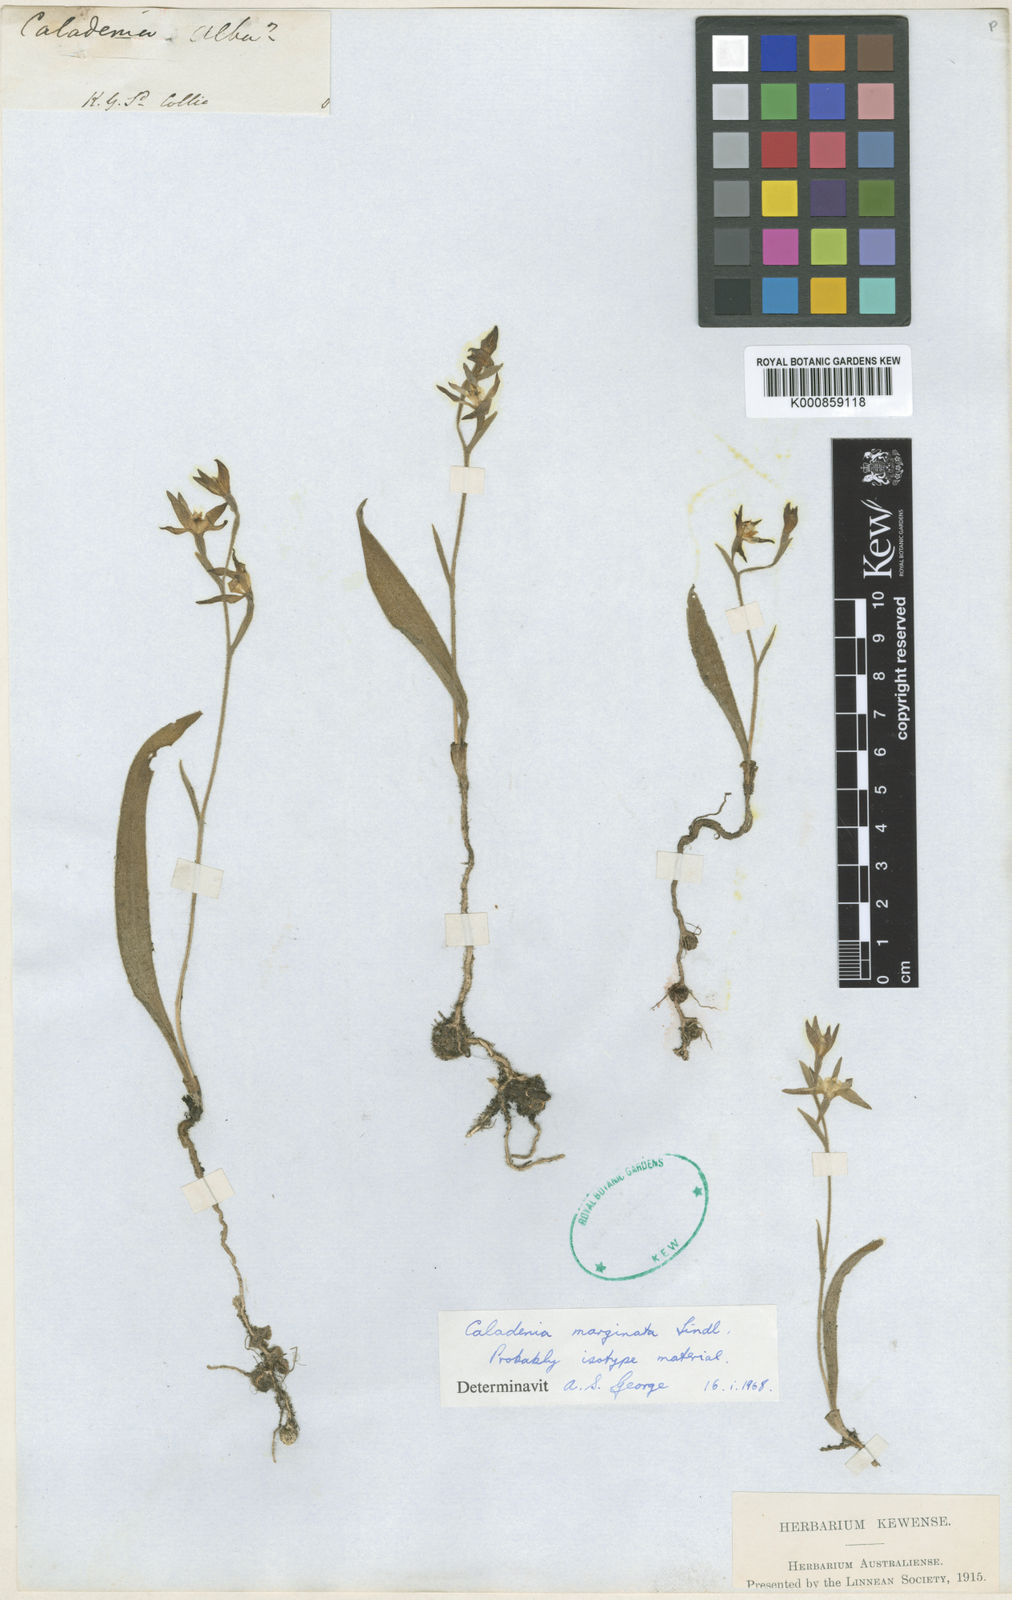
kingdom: Plantae
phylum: Tracheophyta
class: Liliopsida
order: Asparagales
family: Orchidaceae
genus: Caladenia
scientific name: Caladenia marginata
